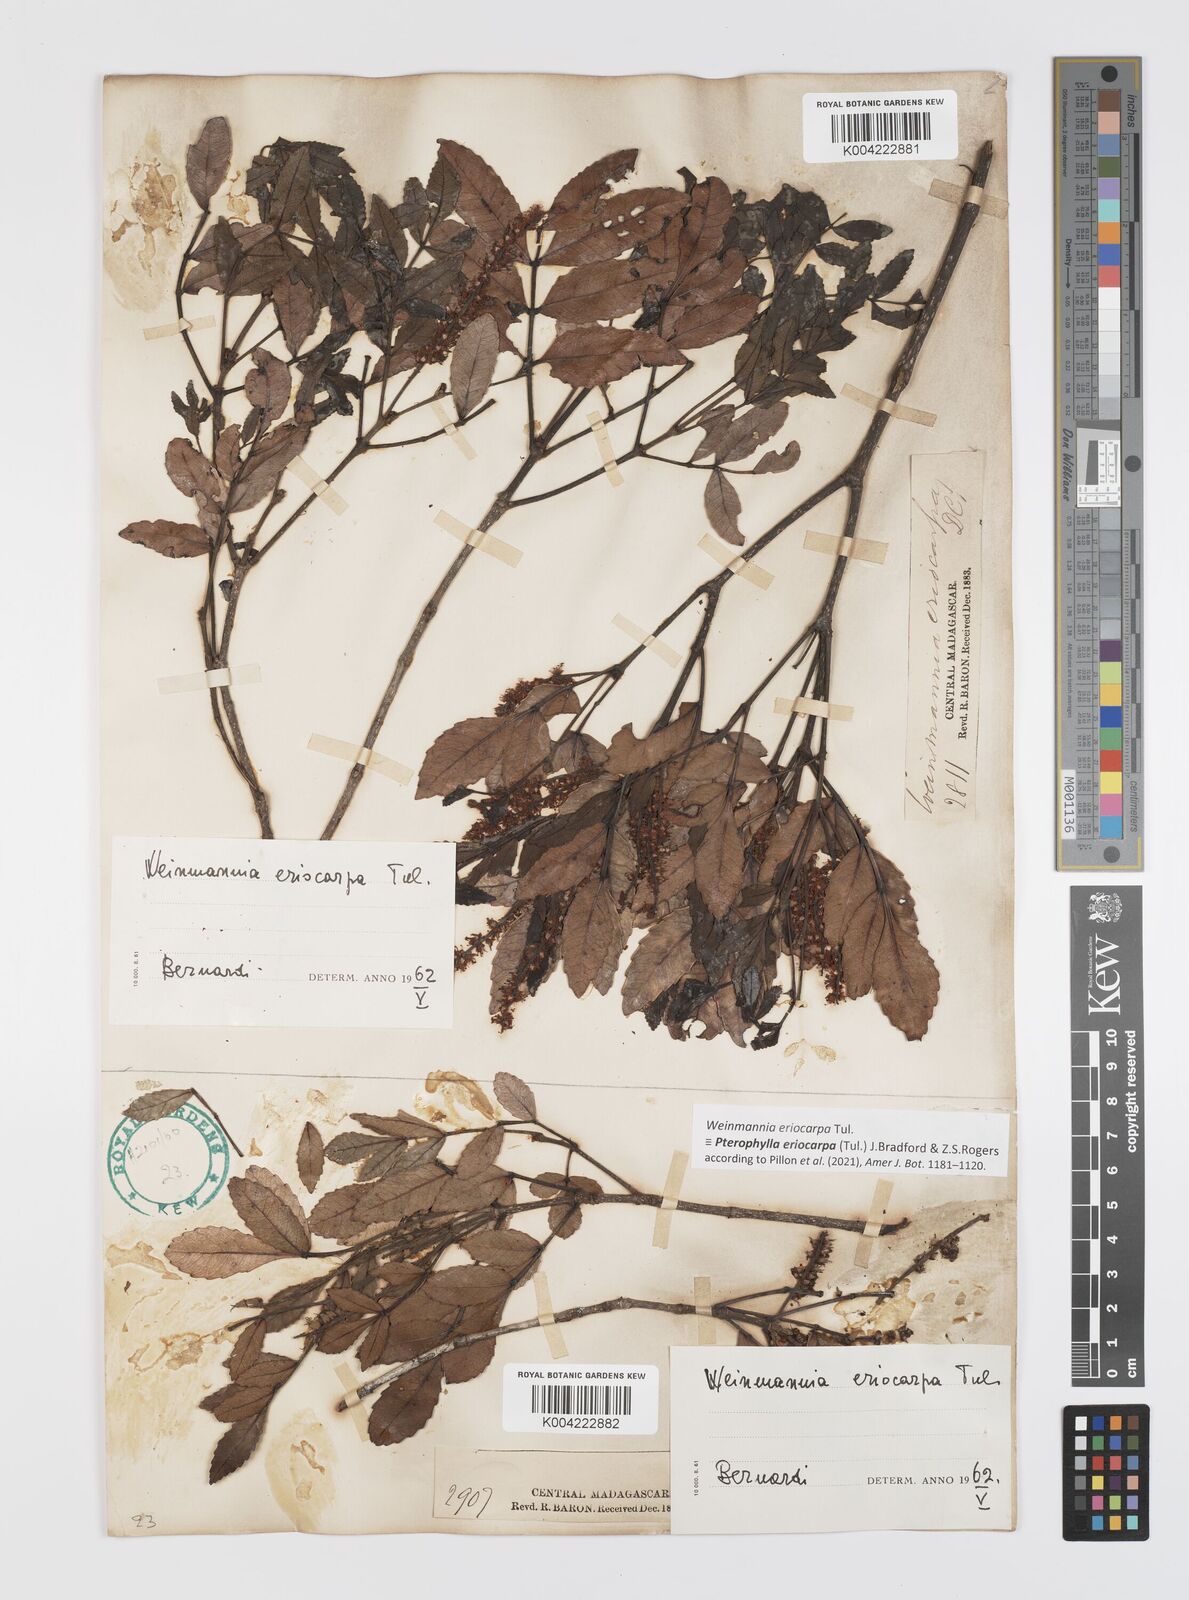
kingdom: Plantae
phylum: Tracheophyta
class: Magnoliopsida
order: Oxalidales
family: Cunoniaceae
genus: Pterophylla
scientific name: Pterophylla eriocarpa
